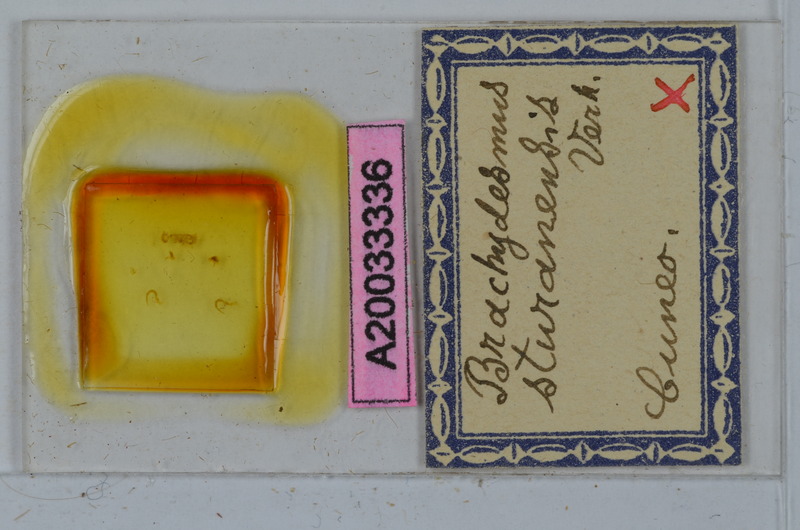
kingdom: Animalia
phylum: Arthropoda
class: Diplopoda
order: Polydesmida
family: Polydesmidae
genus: Brachydesmus
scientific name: Brachydesmus silvanus
